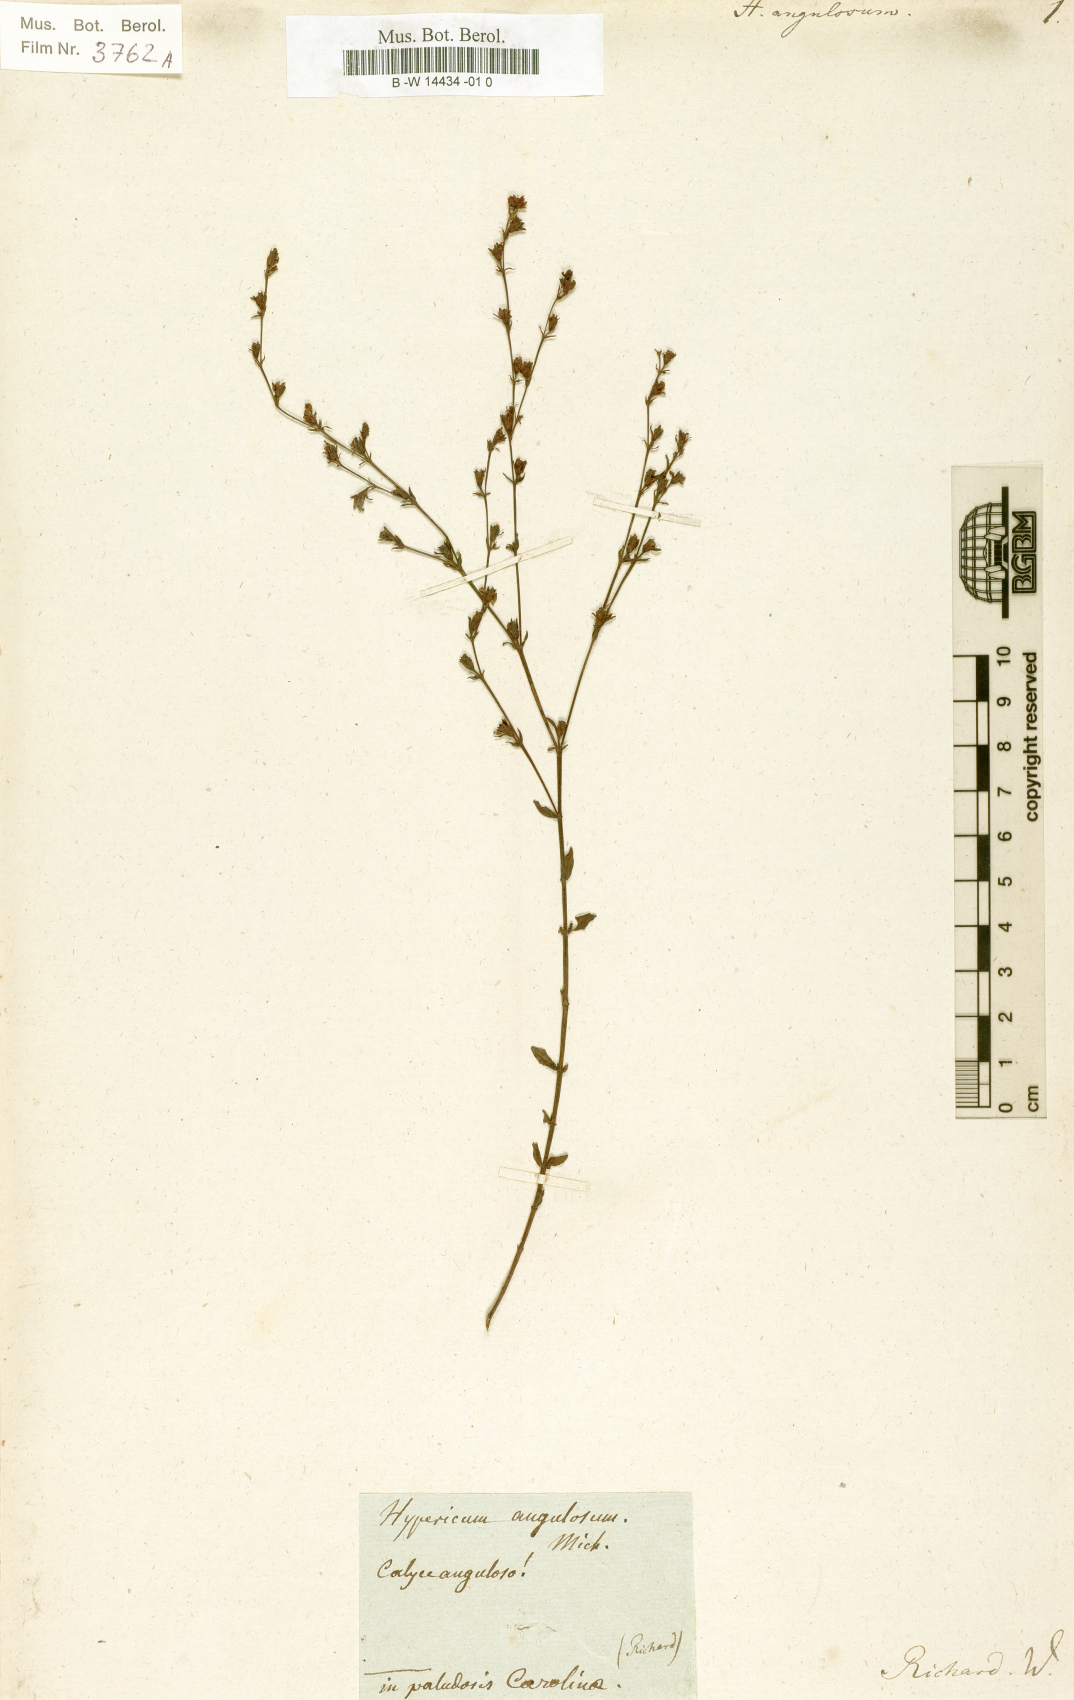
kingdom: Plantae
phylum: Tracheophyta
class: Magnoliopsida
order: Malpighiales
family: Hypericaceae
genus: Hypericum
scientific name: Hypericum denticulatum
